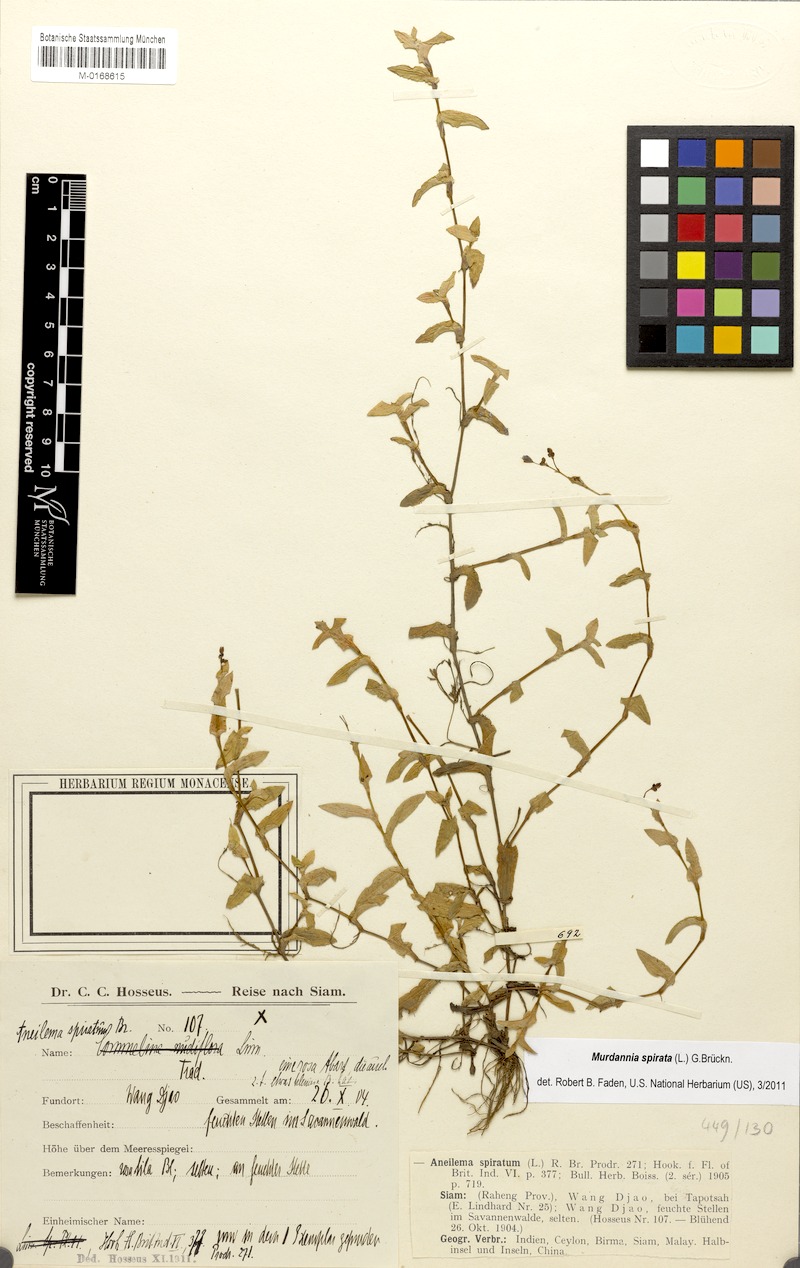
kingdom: Plantae
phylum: Tracheophyta
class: Liliopsida
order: Commelinales
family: Commelinaceae
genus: Murdannia
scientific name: Murdannia spirata
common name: Asiatic dewflower
